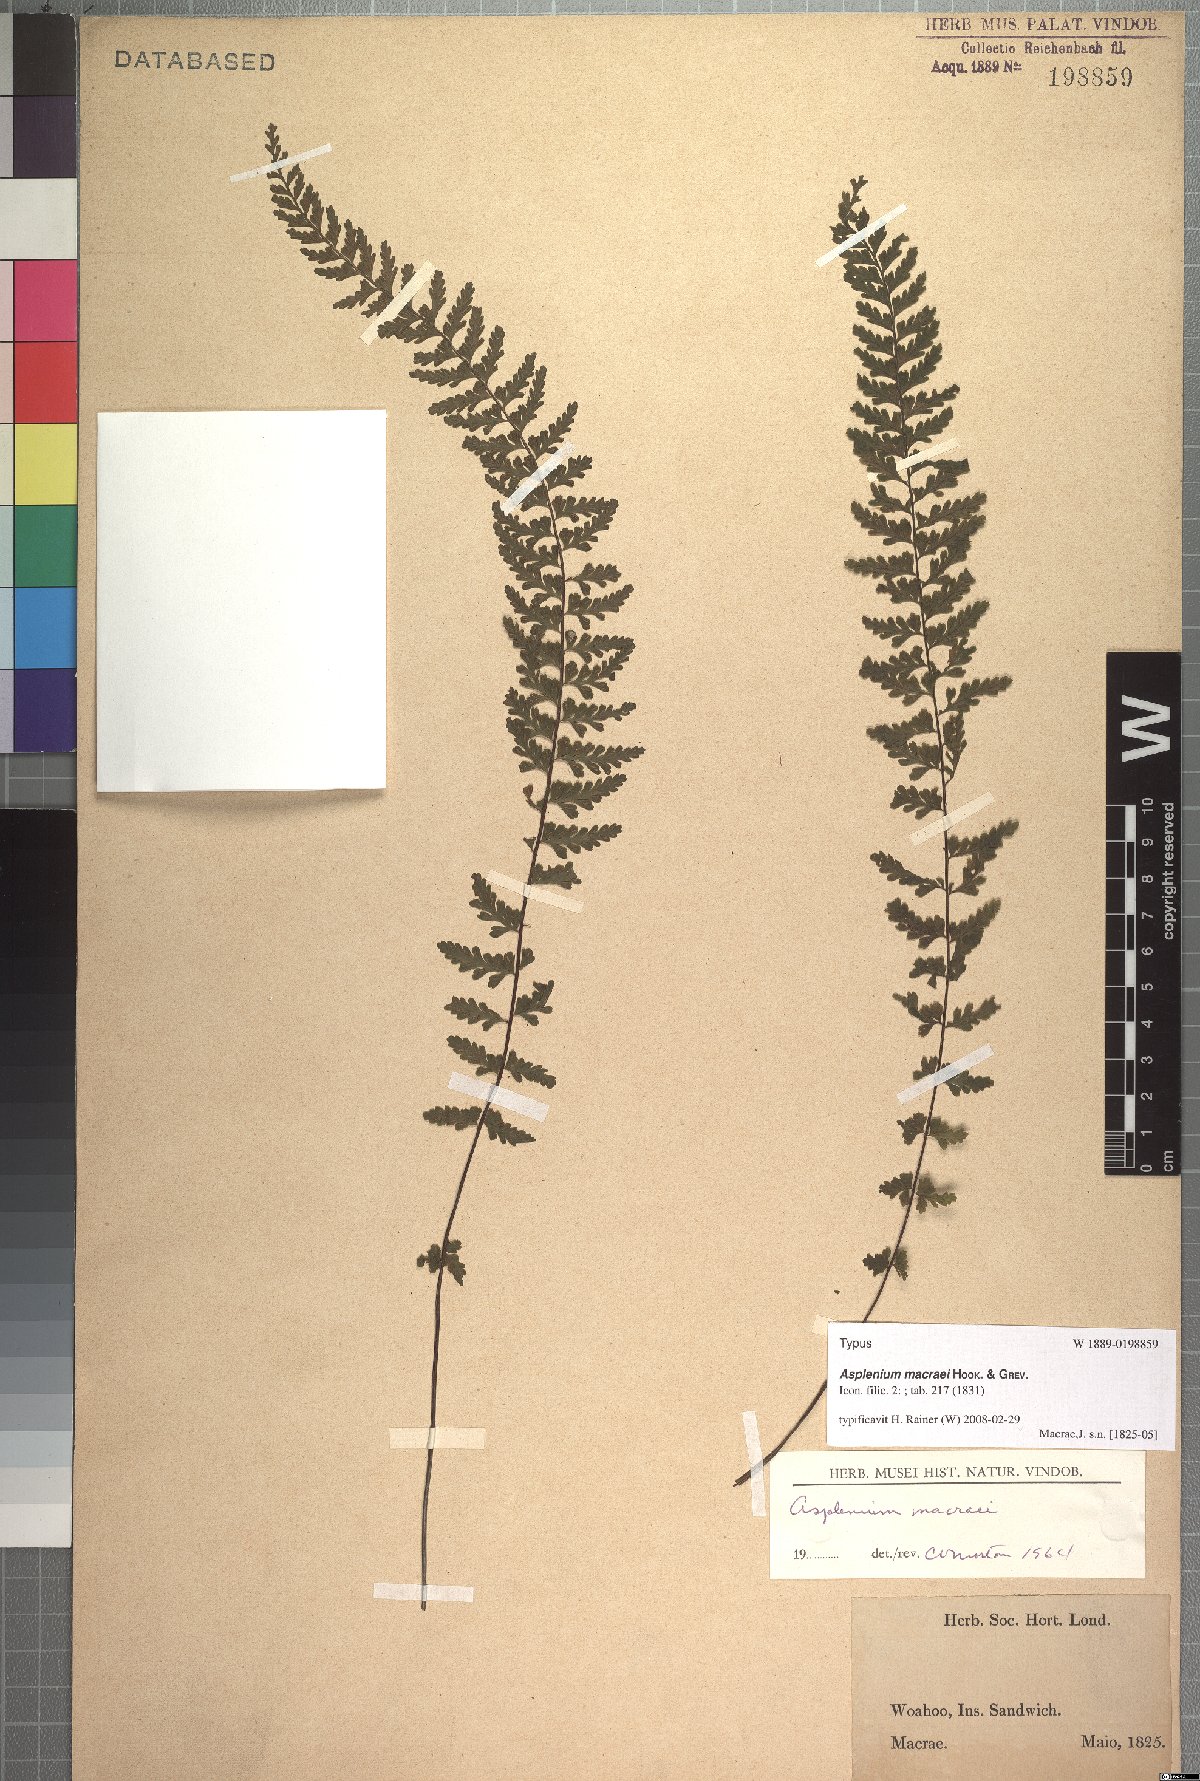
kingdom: Plantae
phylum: Tracheophyta
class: Polypodiopsida
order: Polypodiales
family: Aspleniaceae
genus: Asplenium
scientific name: Asplenium macraei
